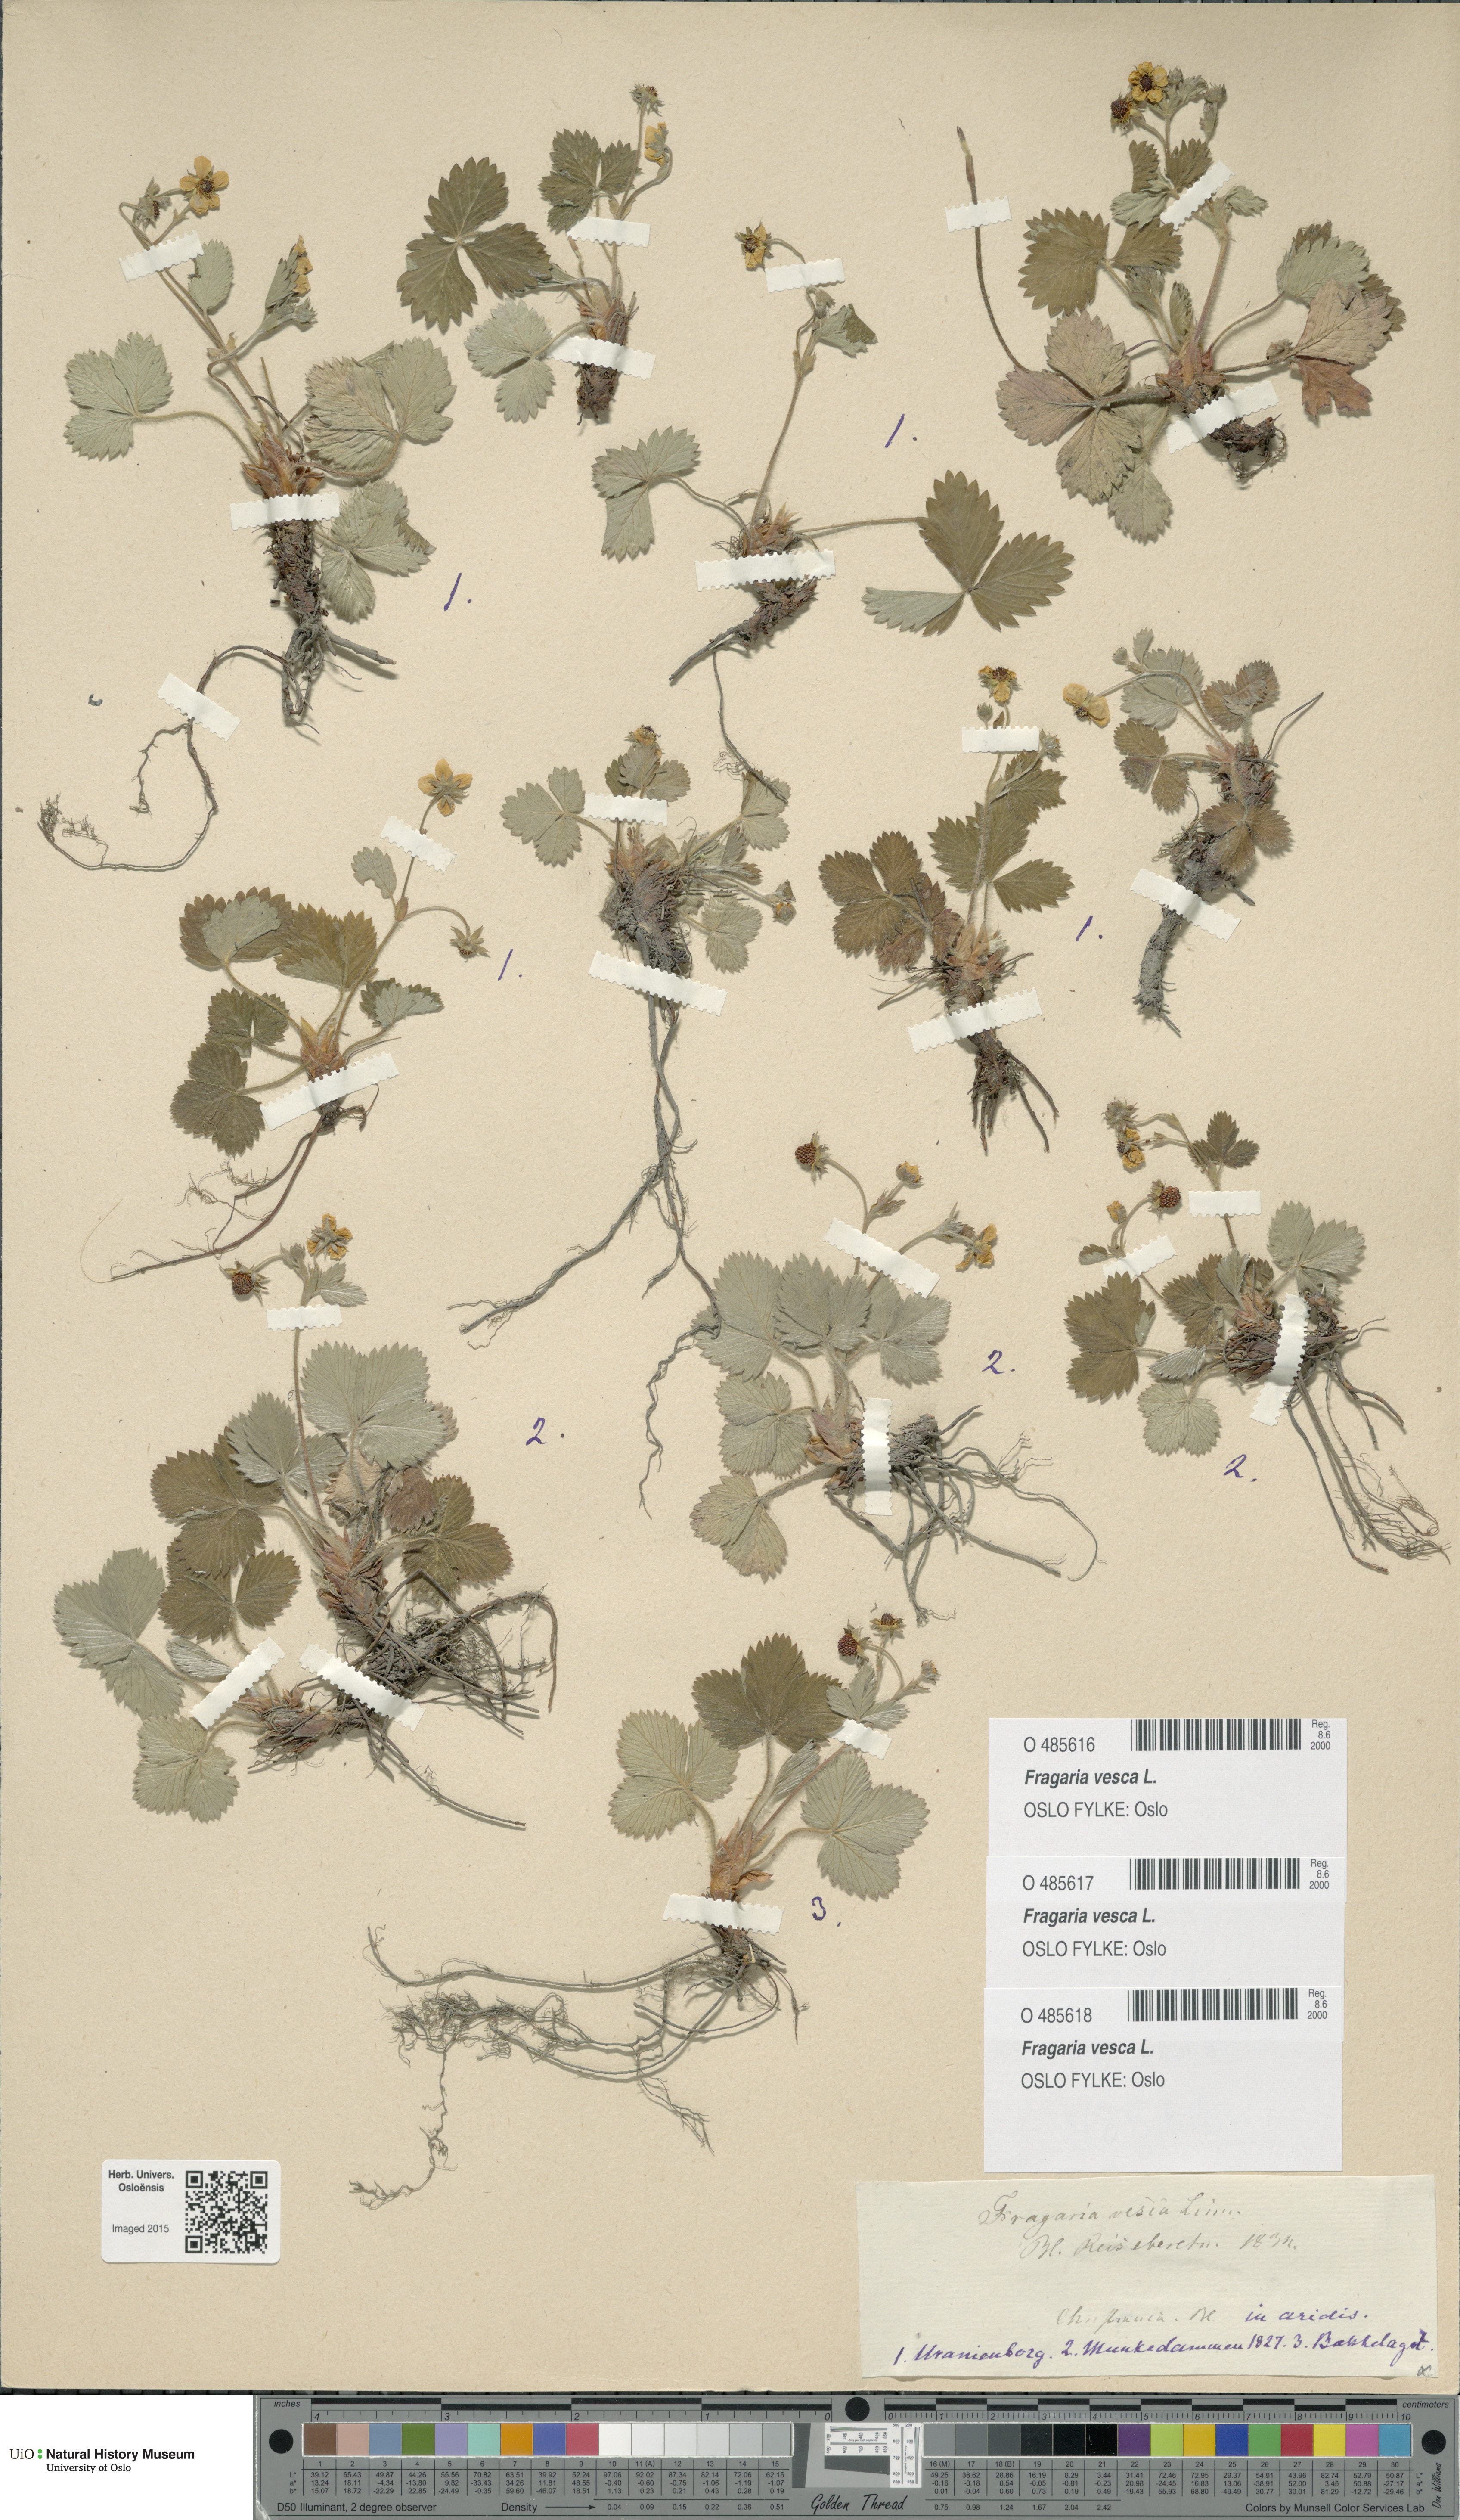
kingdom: Plantae
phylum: Tracheophyta
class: Magnoliopsida
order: Rosales
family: Rosaceae
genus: Fragaria
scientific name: Fragaria vesca
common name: Wild strawberry
